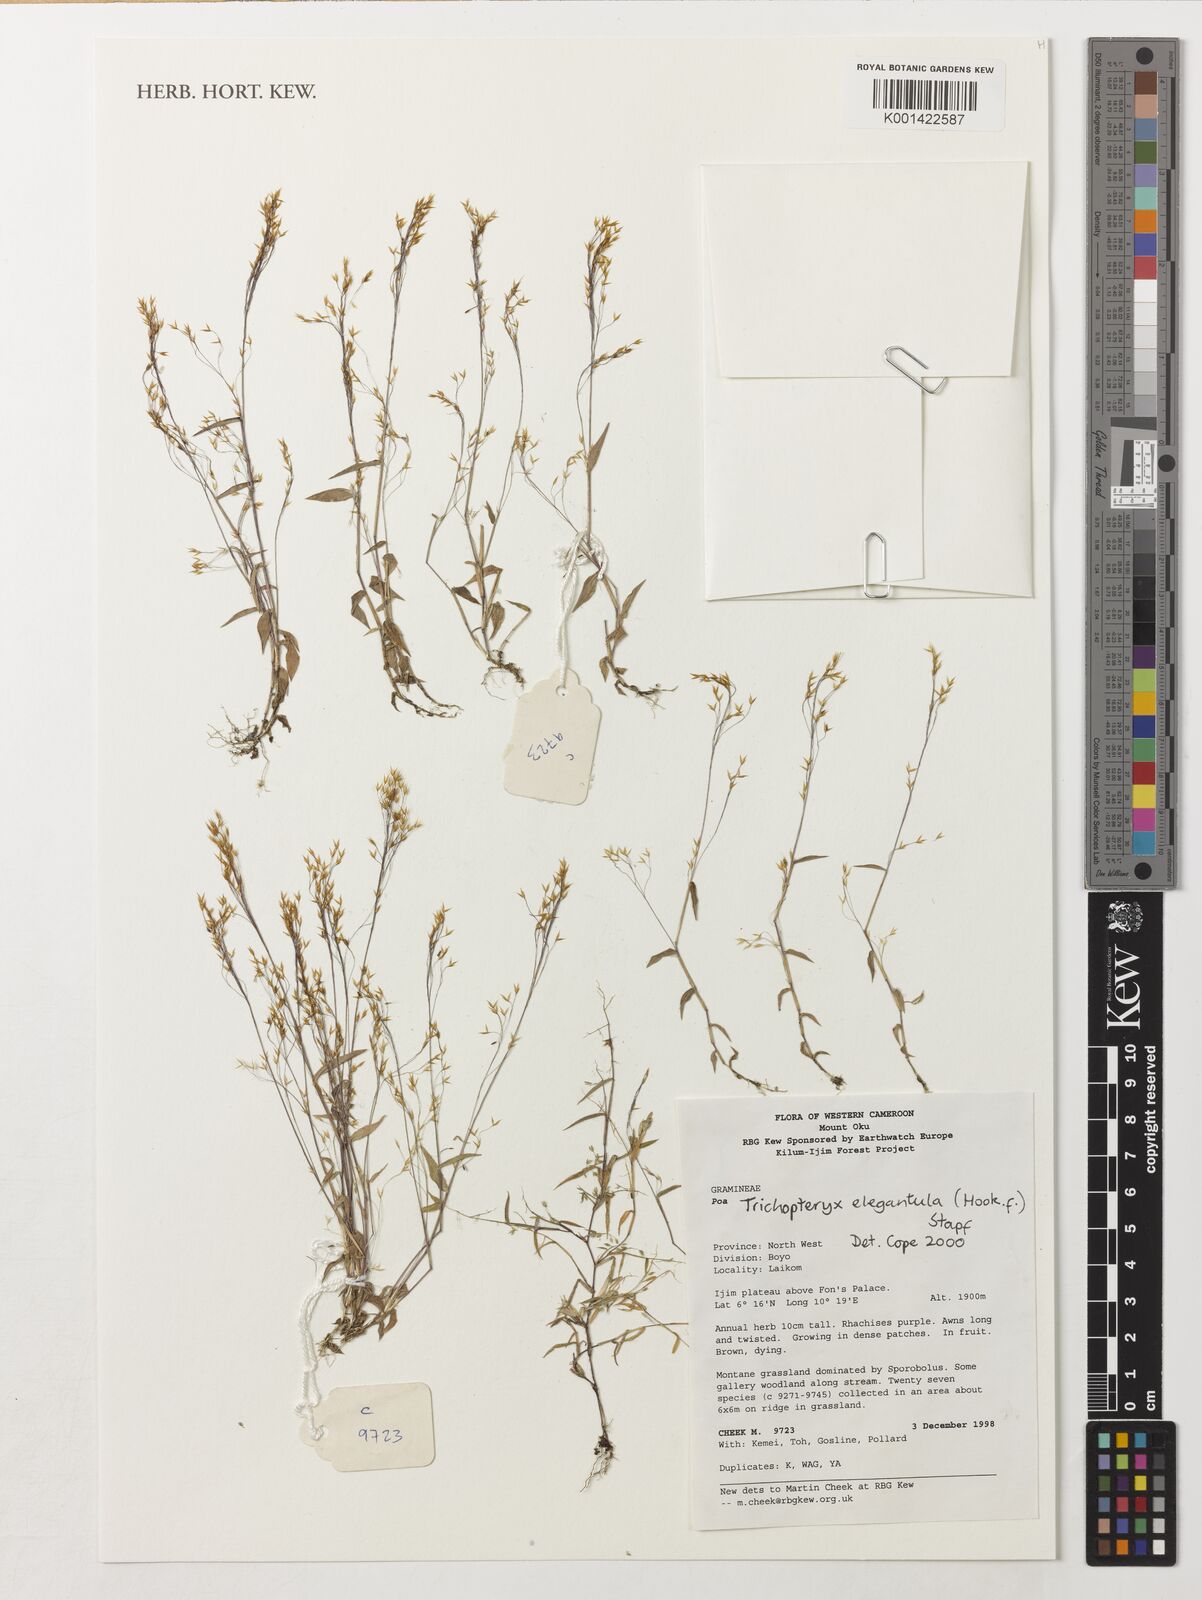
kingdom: Plantae
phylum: Tracheophyta
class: Liliopsida
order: Poales
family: Poaceae
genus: Trichopteryx
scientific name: Trichopteryx elegantula
